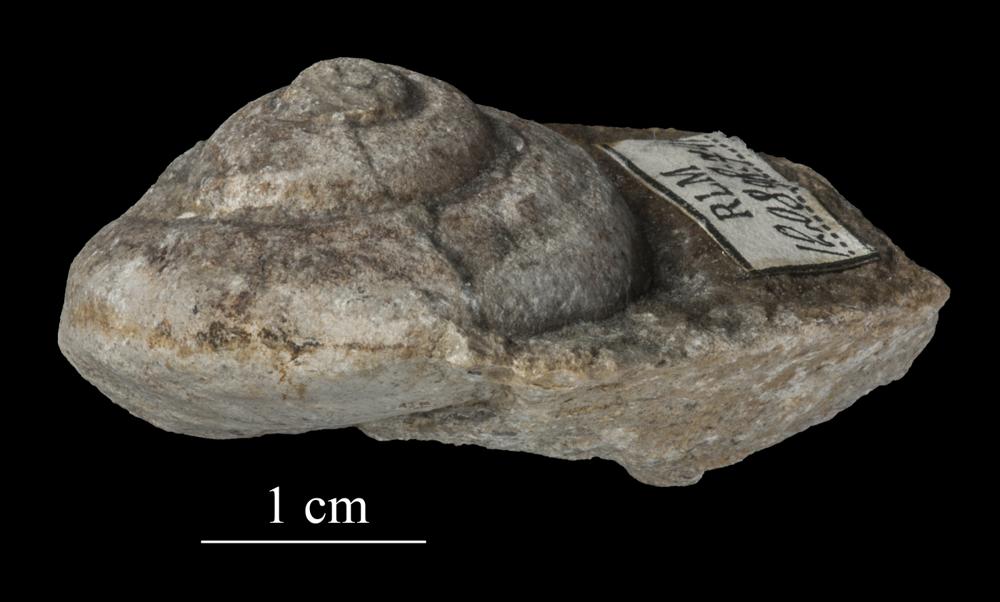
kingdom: Animalia
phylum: Mollusca
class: Gastropoda
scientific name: Gastropoda
